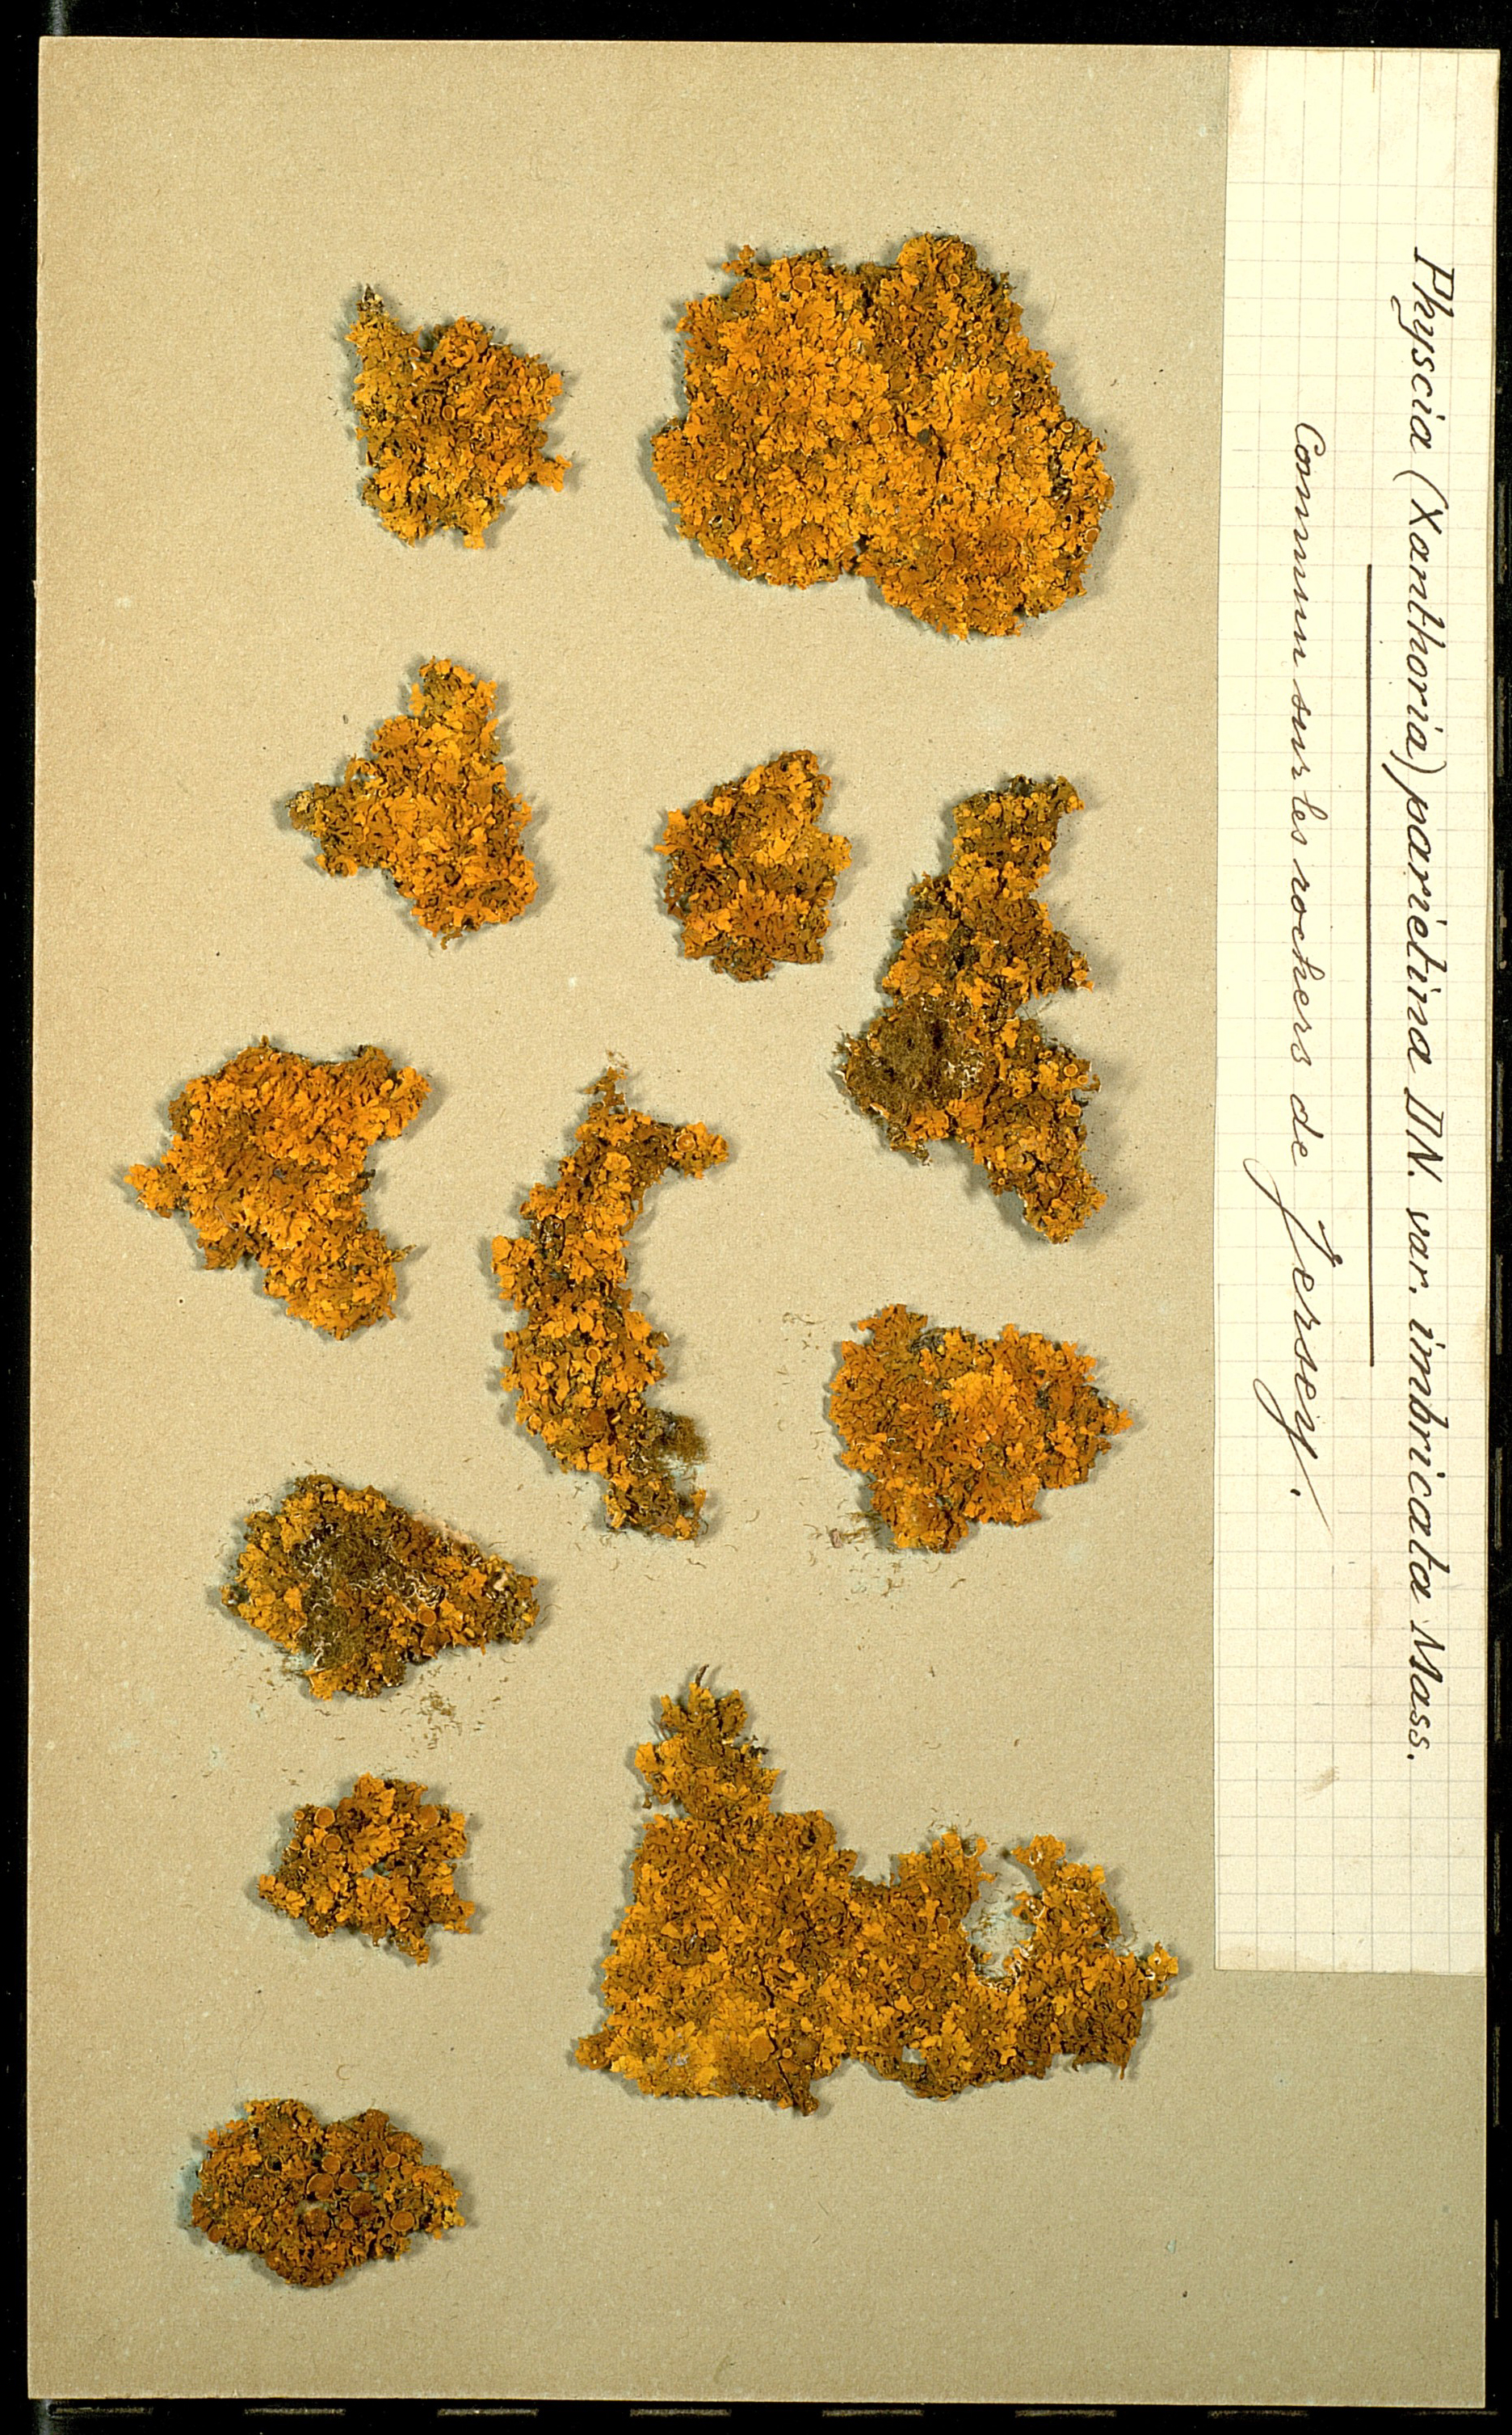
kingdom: Fungi
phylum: Ascomycota
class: Lecanoromycetes
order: Teloschistales
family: Teloschistaceae
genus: Xanthoria
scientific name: Xanthoria parietina
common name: Common orange lichen
